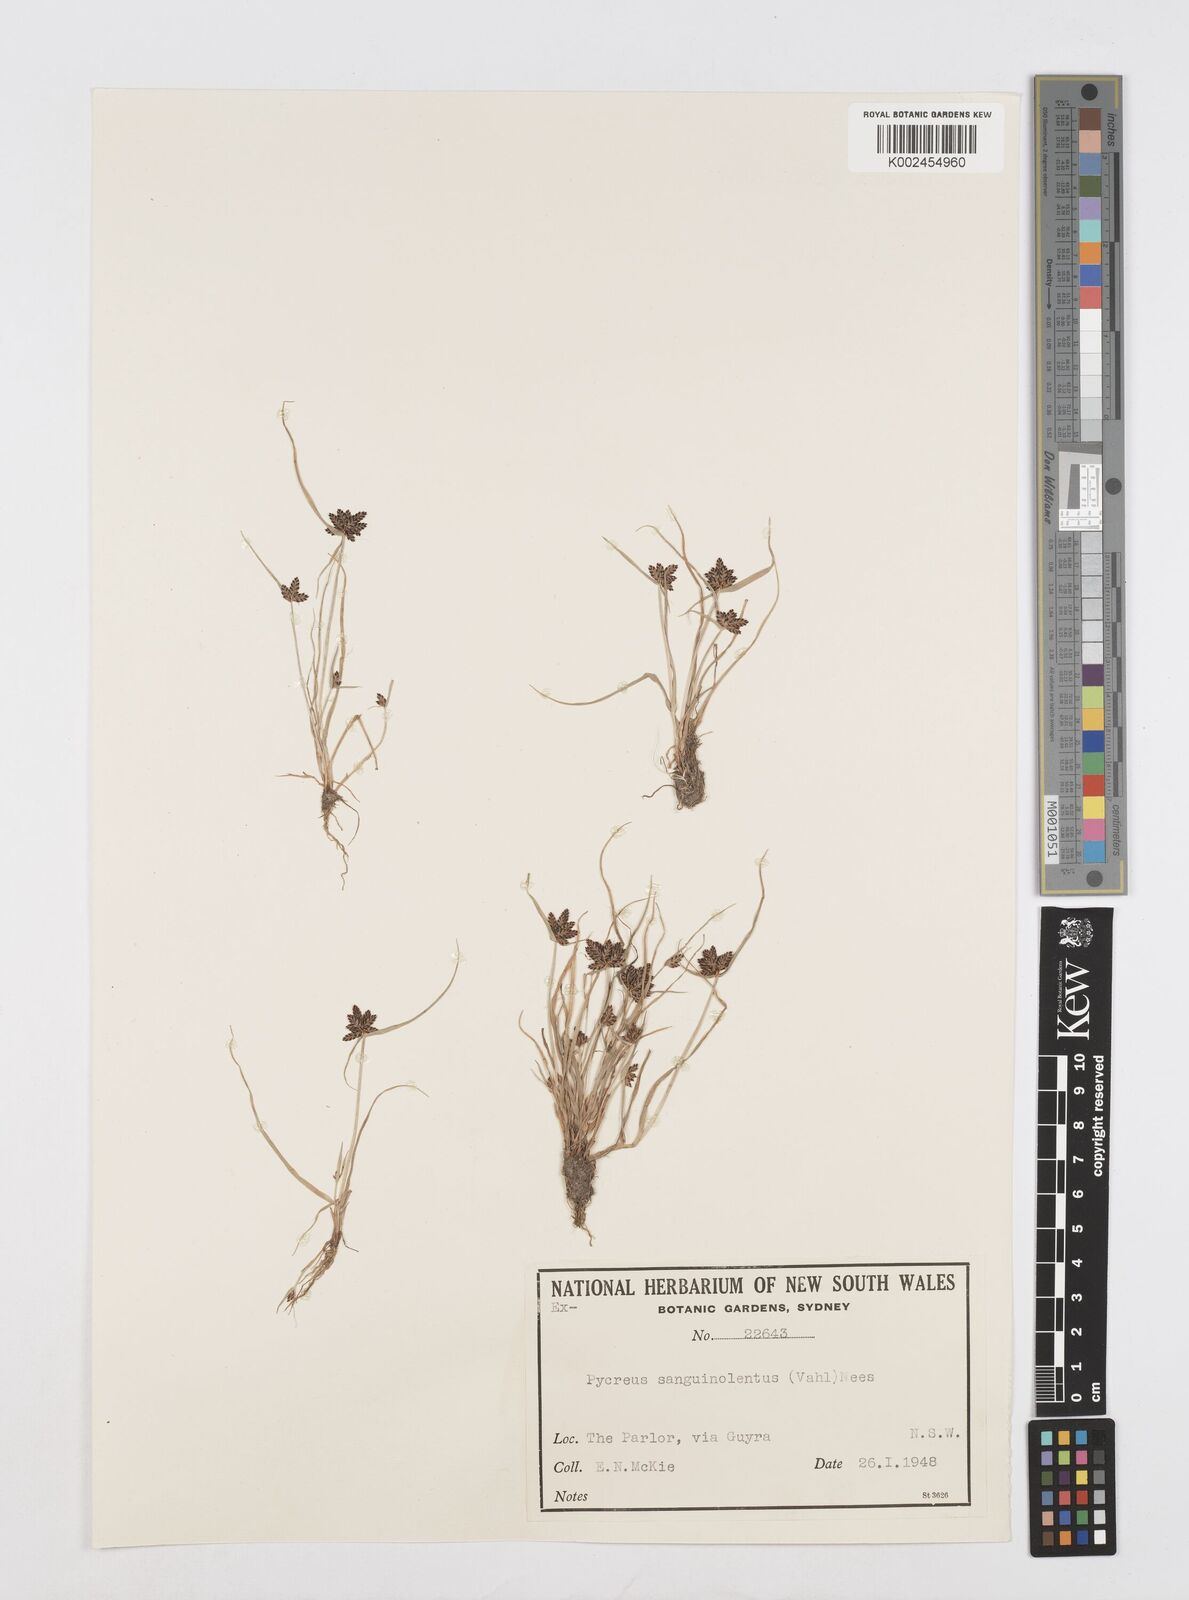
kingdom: Plantae
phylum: Tracheophyta
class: Liliopsida
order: Poales
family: Cyperaceae
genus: Cyperus
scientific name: Cyperus sanguinolentus
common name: Purpleglume flatsedge
